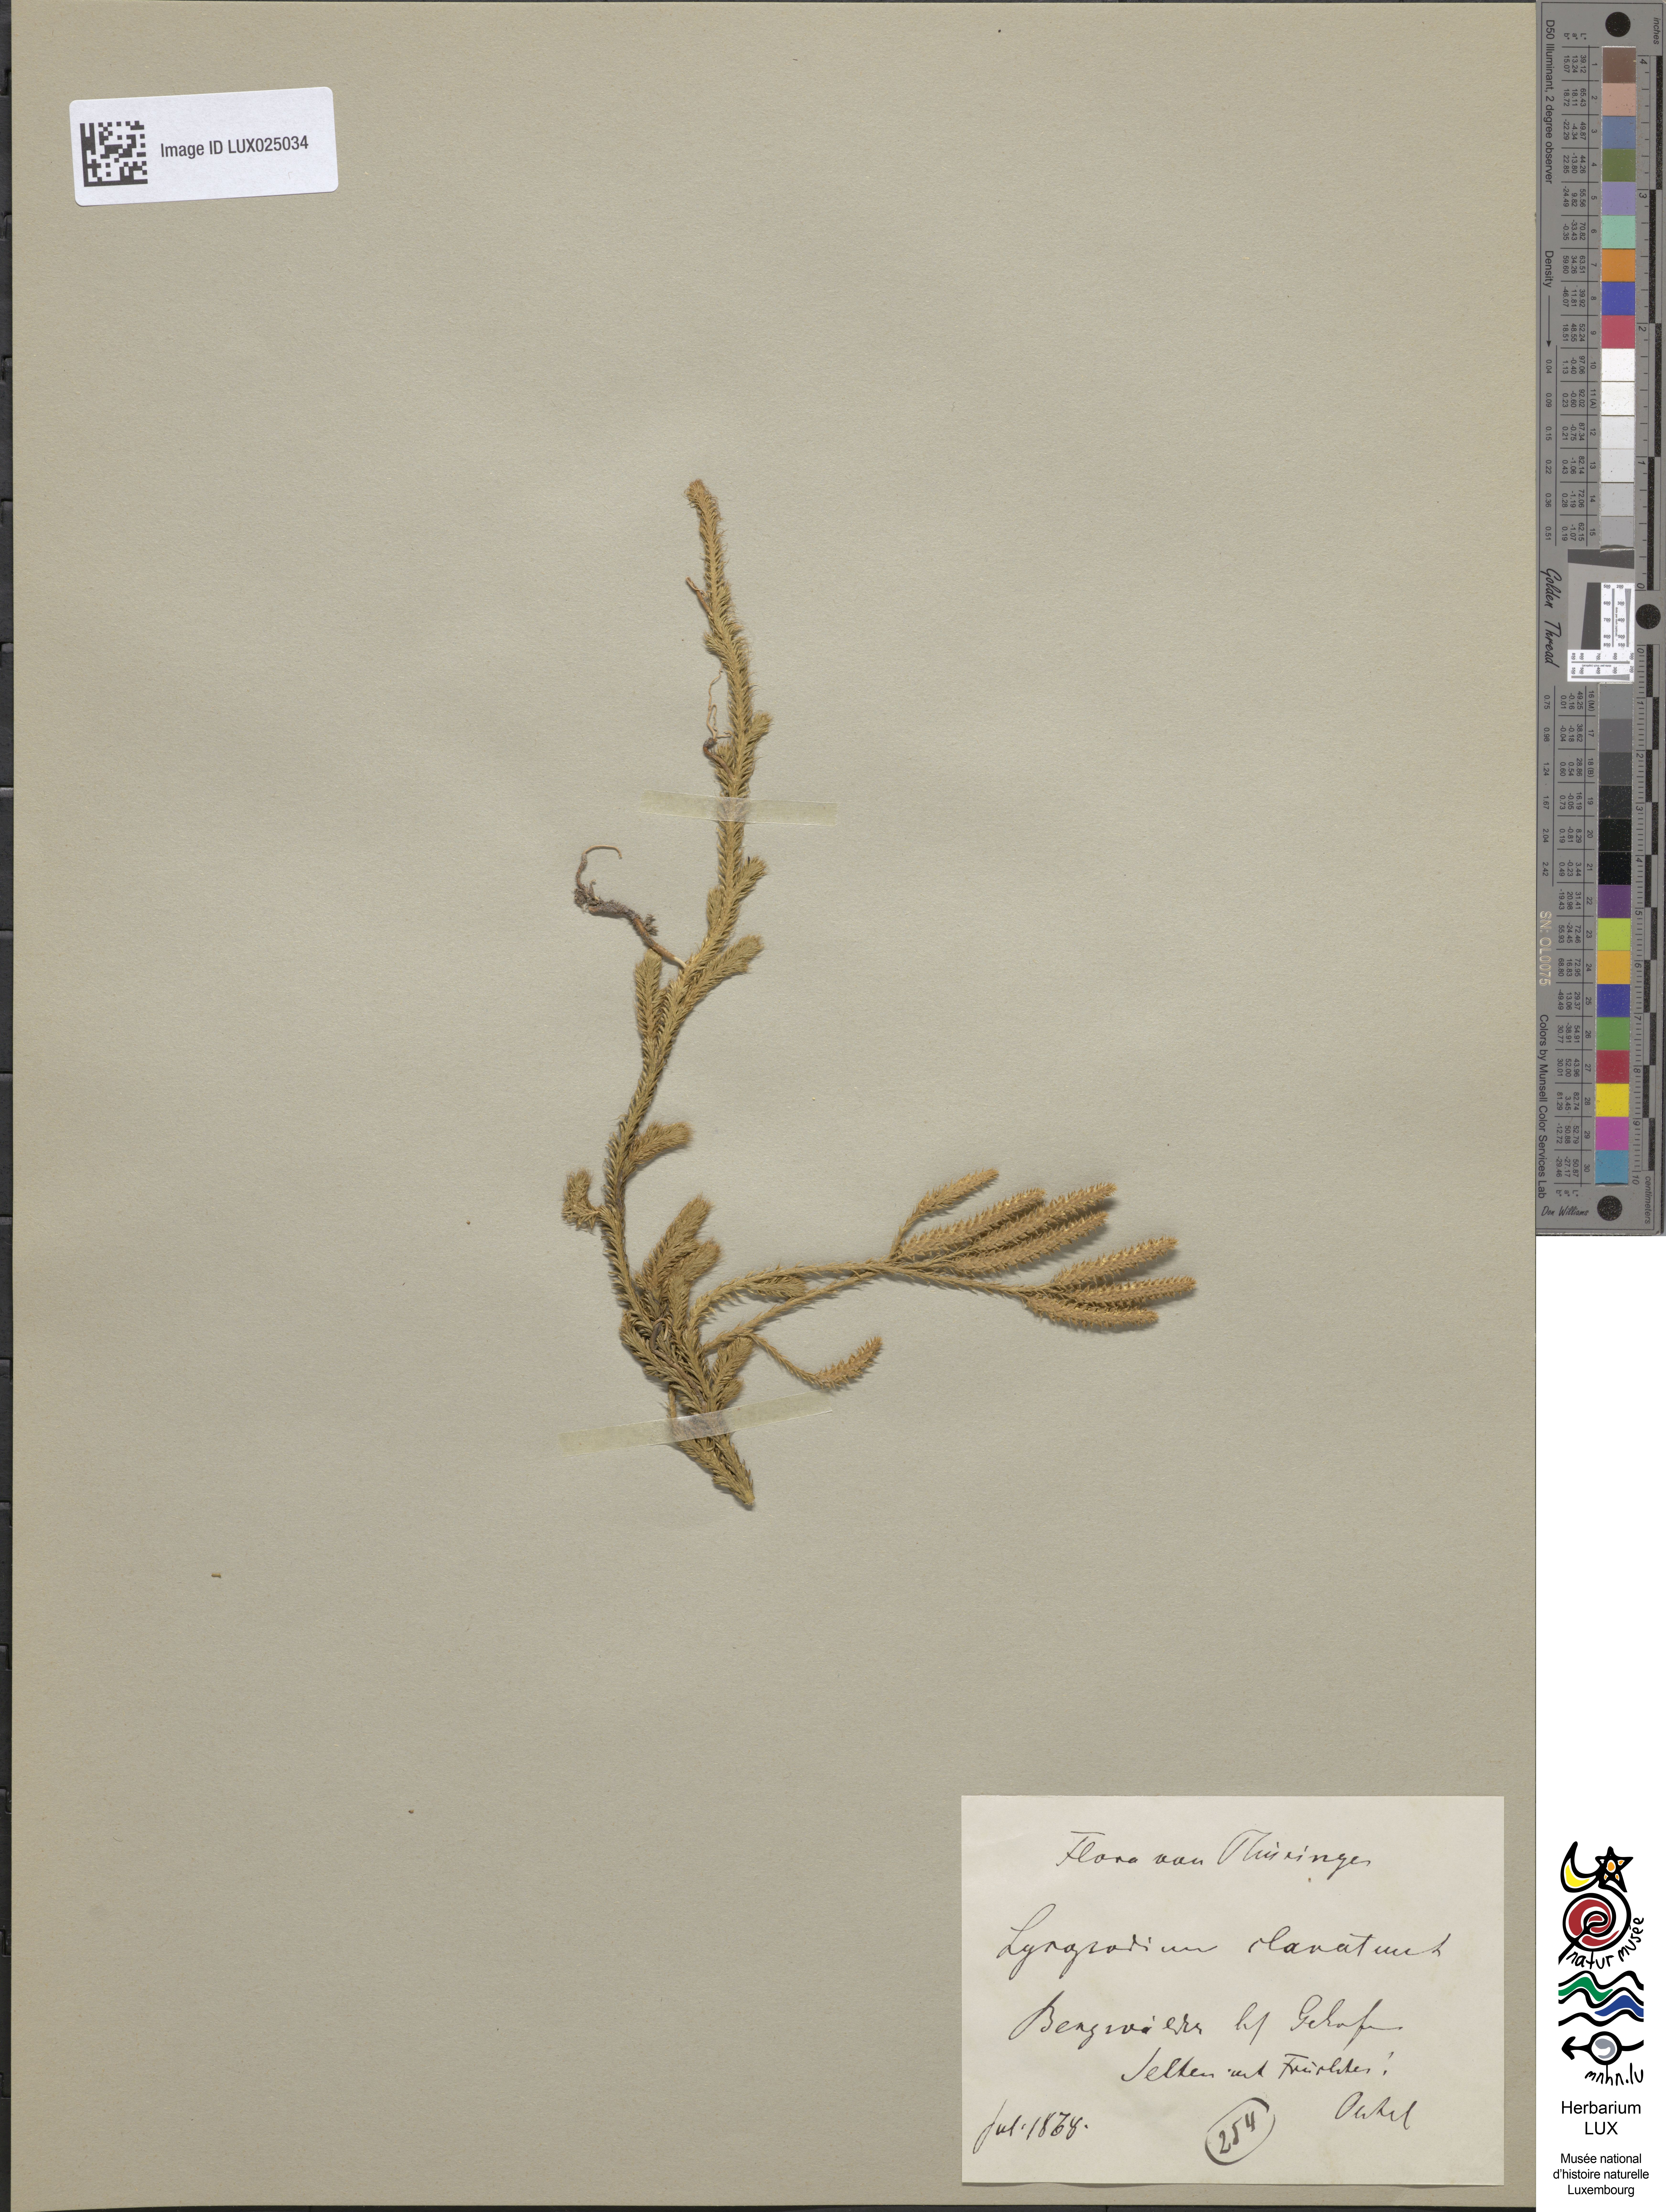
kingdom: Plantae
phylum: Tracheophyta
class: Lycopodiopsida
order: Lycopodiales
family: Lycopodiaceae
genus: Lycopodium
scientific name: Lycopodium clavatum
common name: Stag's-horn clubmoss
